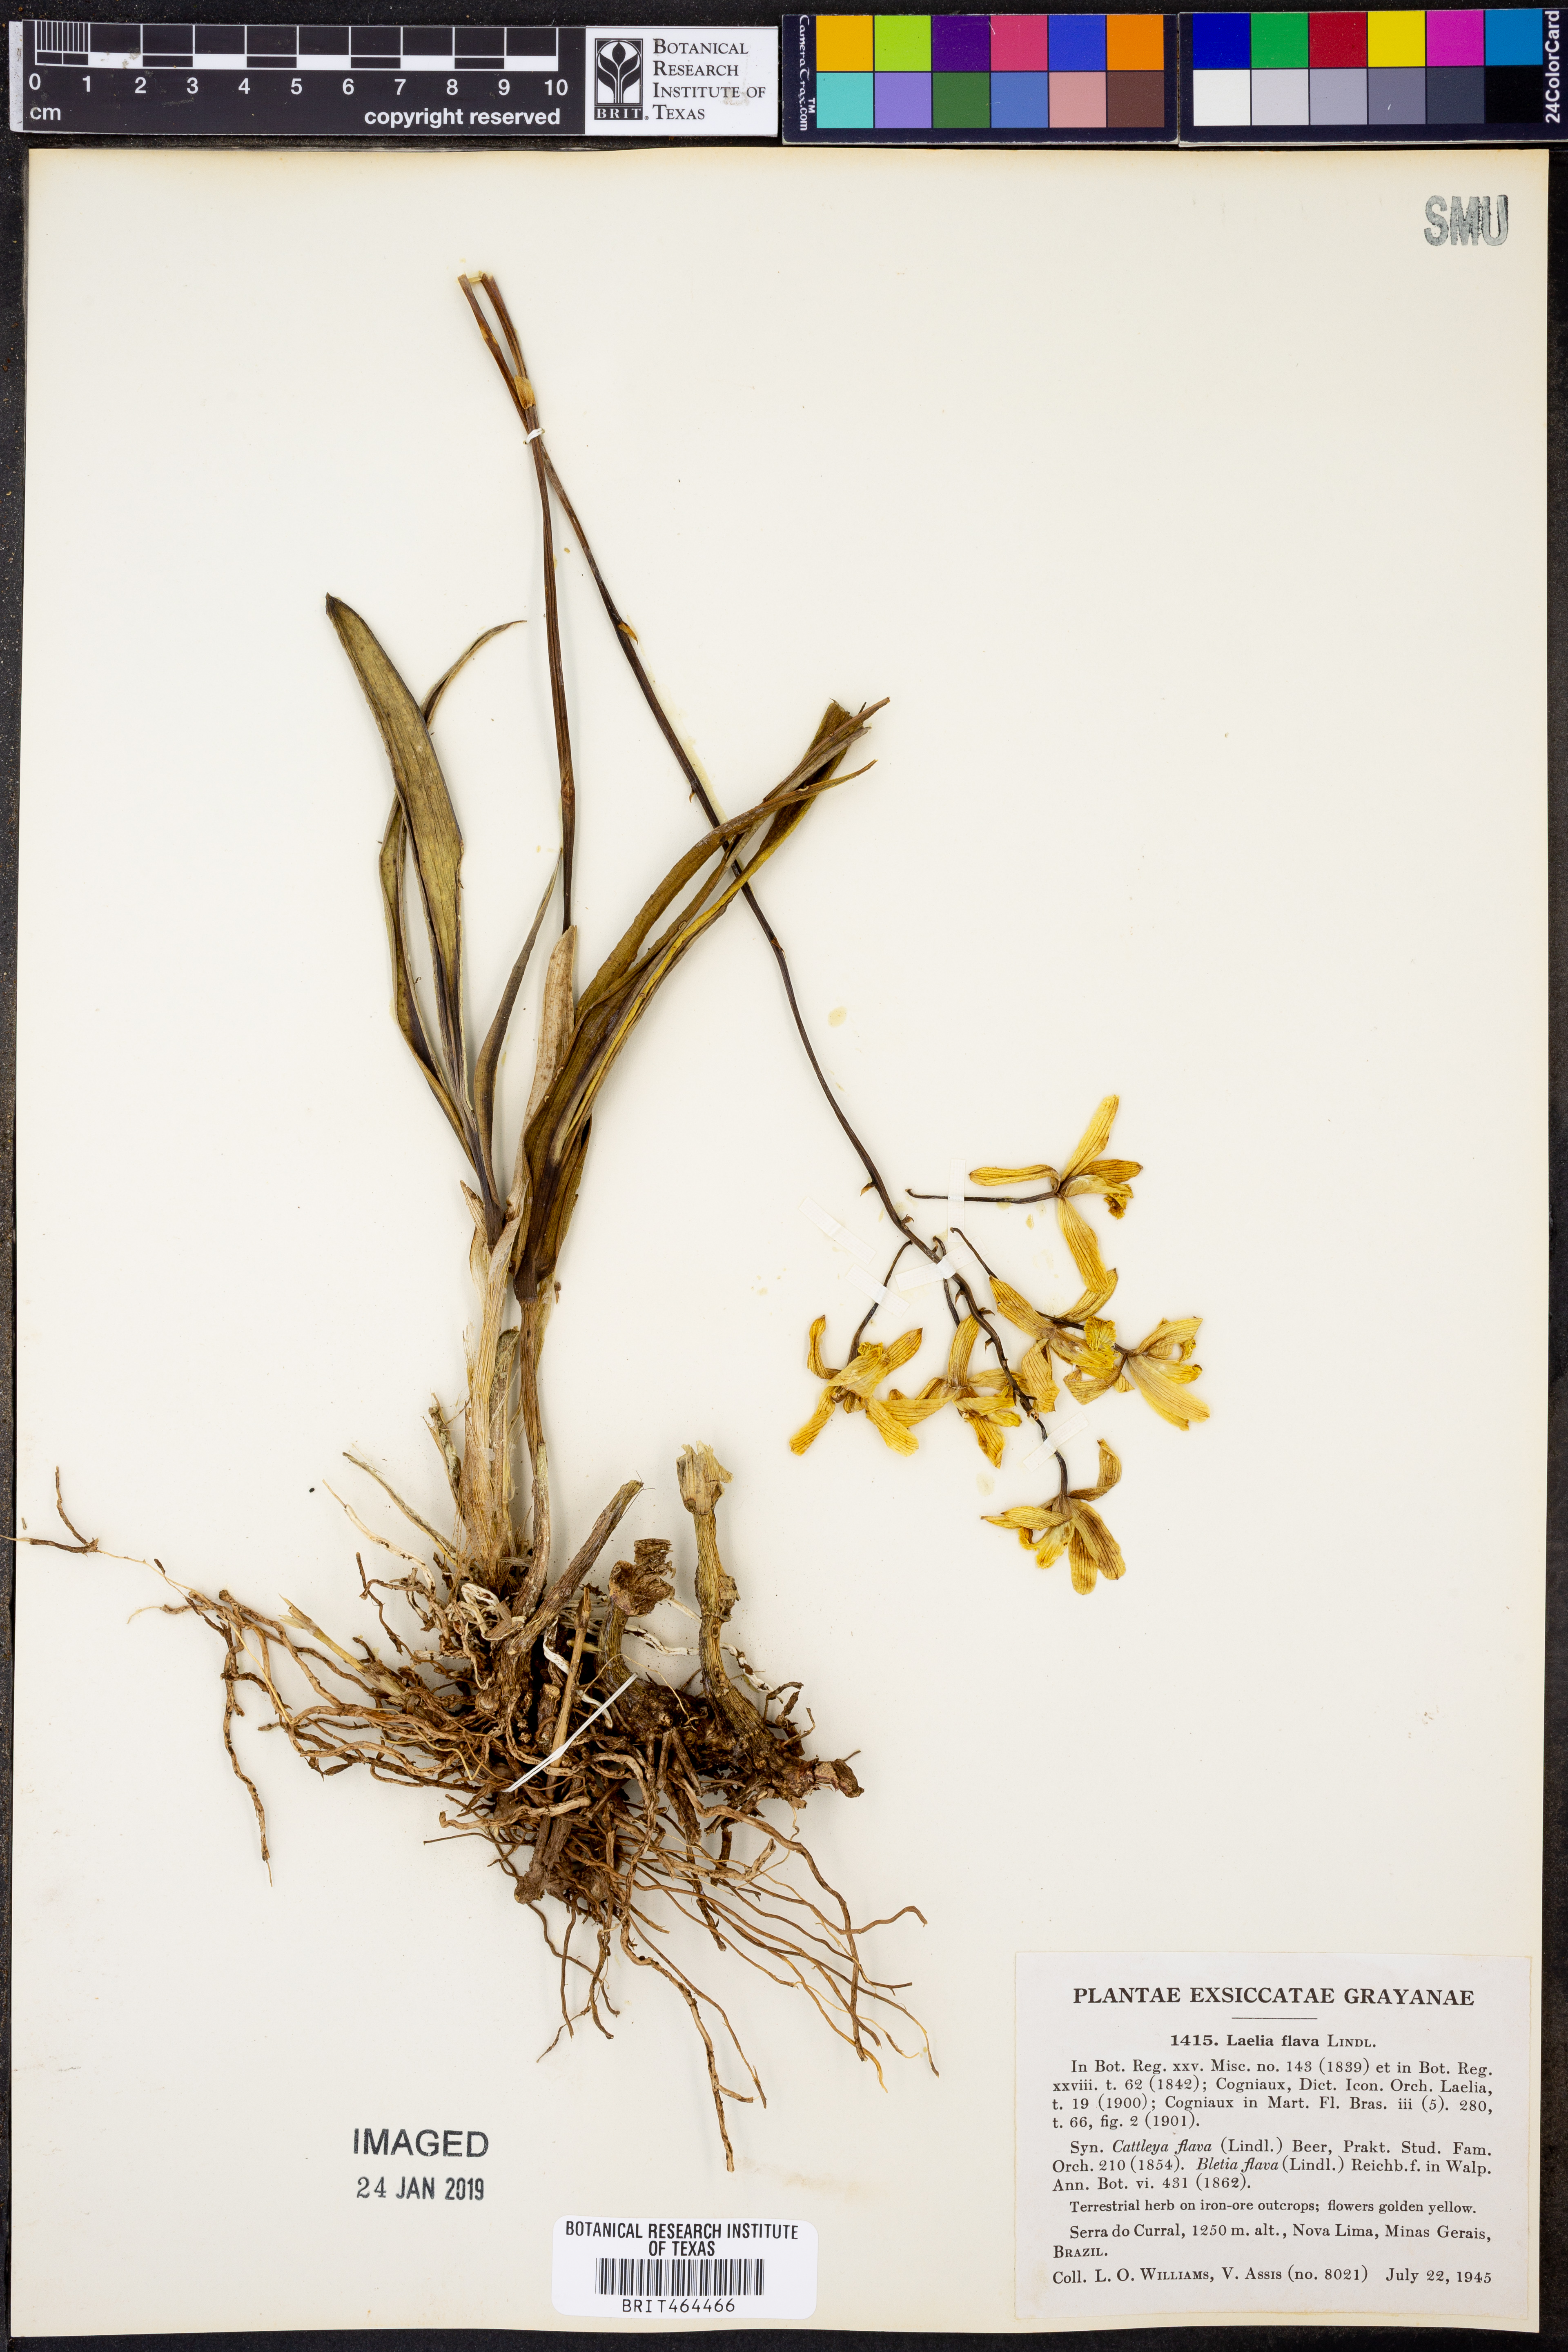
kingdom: Plantae
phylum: Tracheophyta
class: Liliopsida
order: Asparagales
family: Orchidaceae
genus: Cattleya
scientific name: Cattleya crispata
